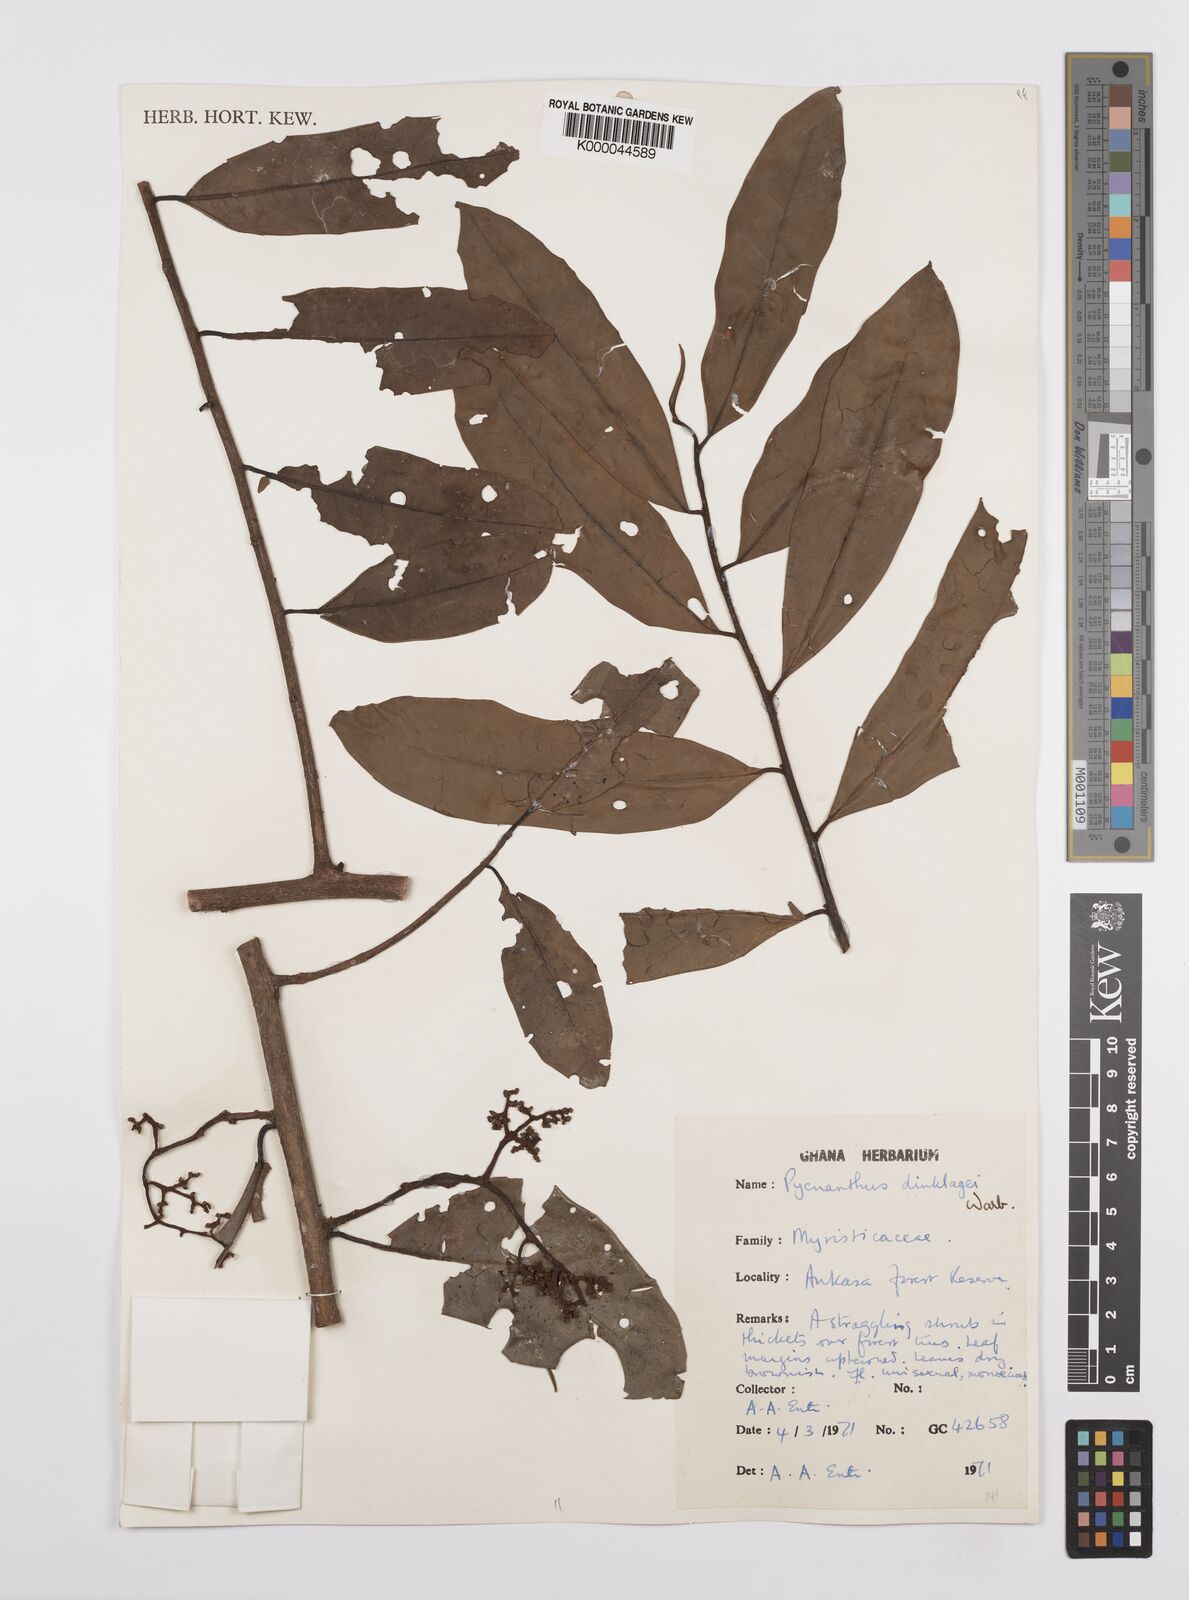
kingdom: Plantae
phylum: Tracheophyta
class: Magnoliopsida
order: Magnoliales
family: Myristicaceae
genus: Pycnanthus
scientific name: Pycnanthus dinklagei
